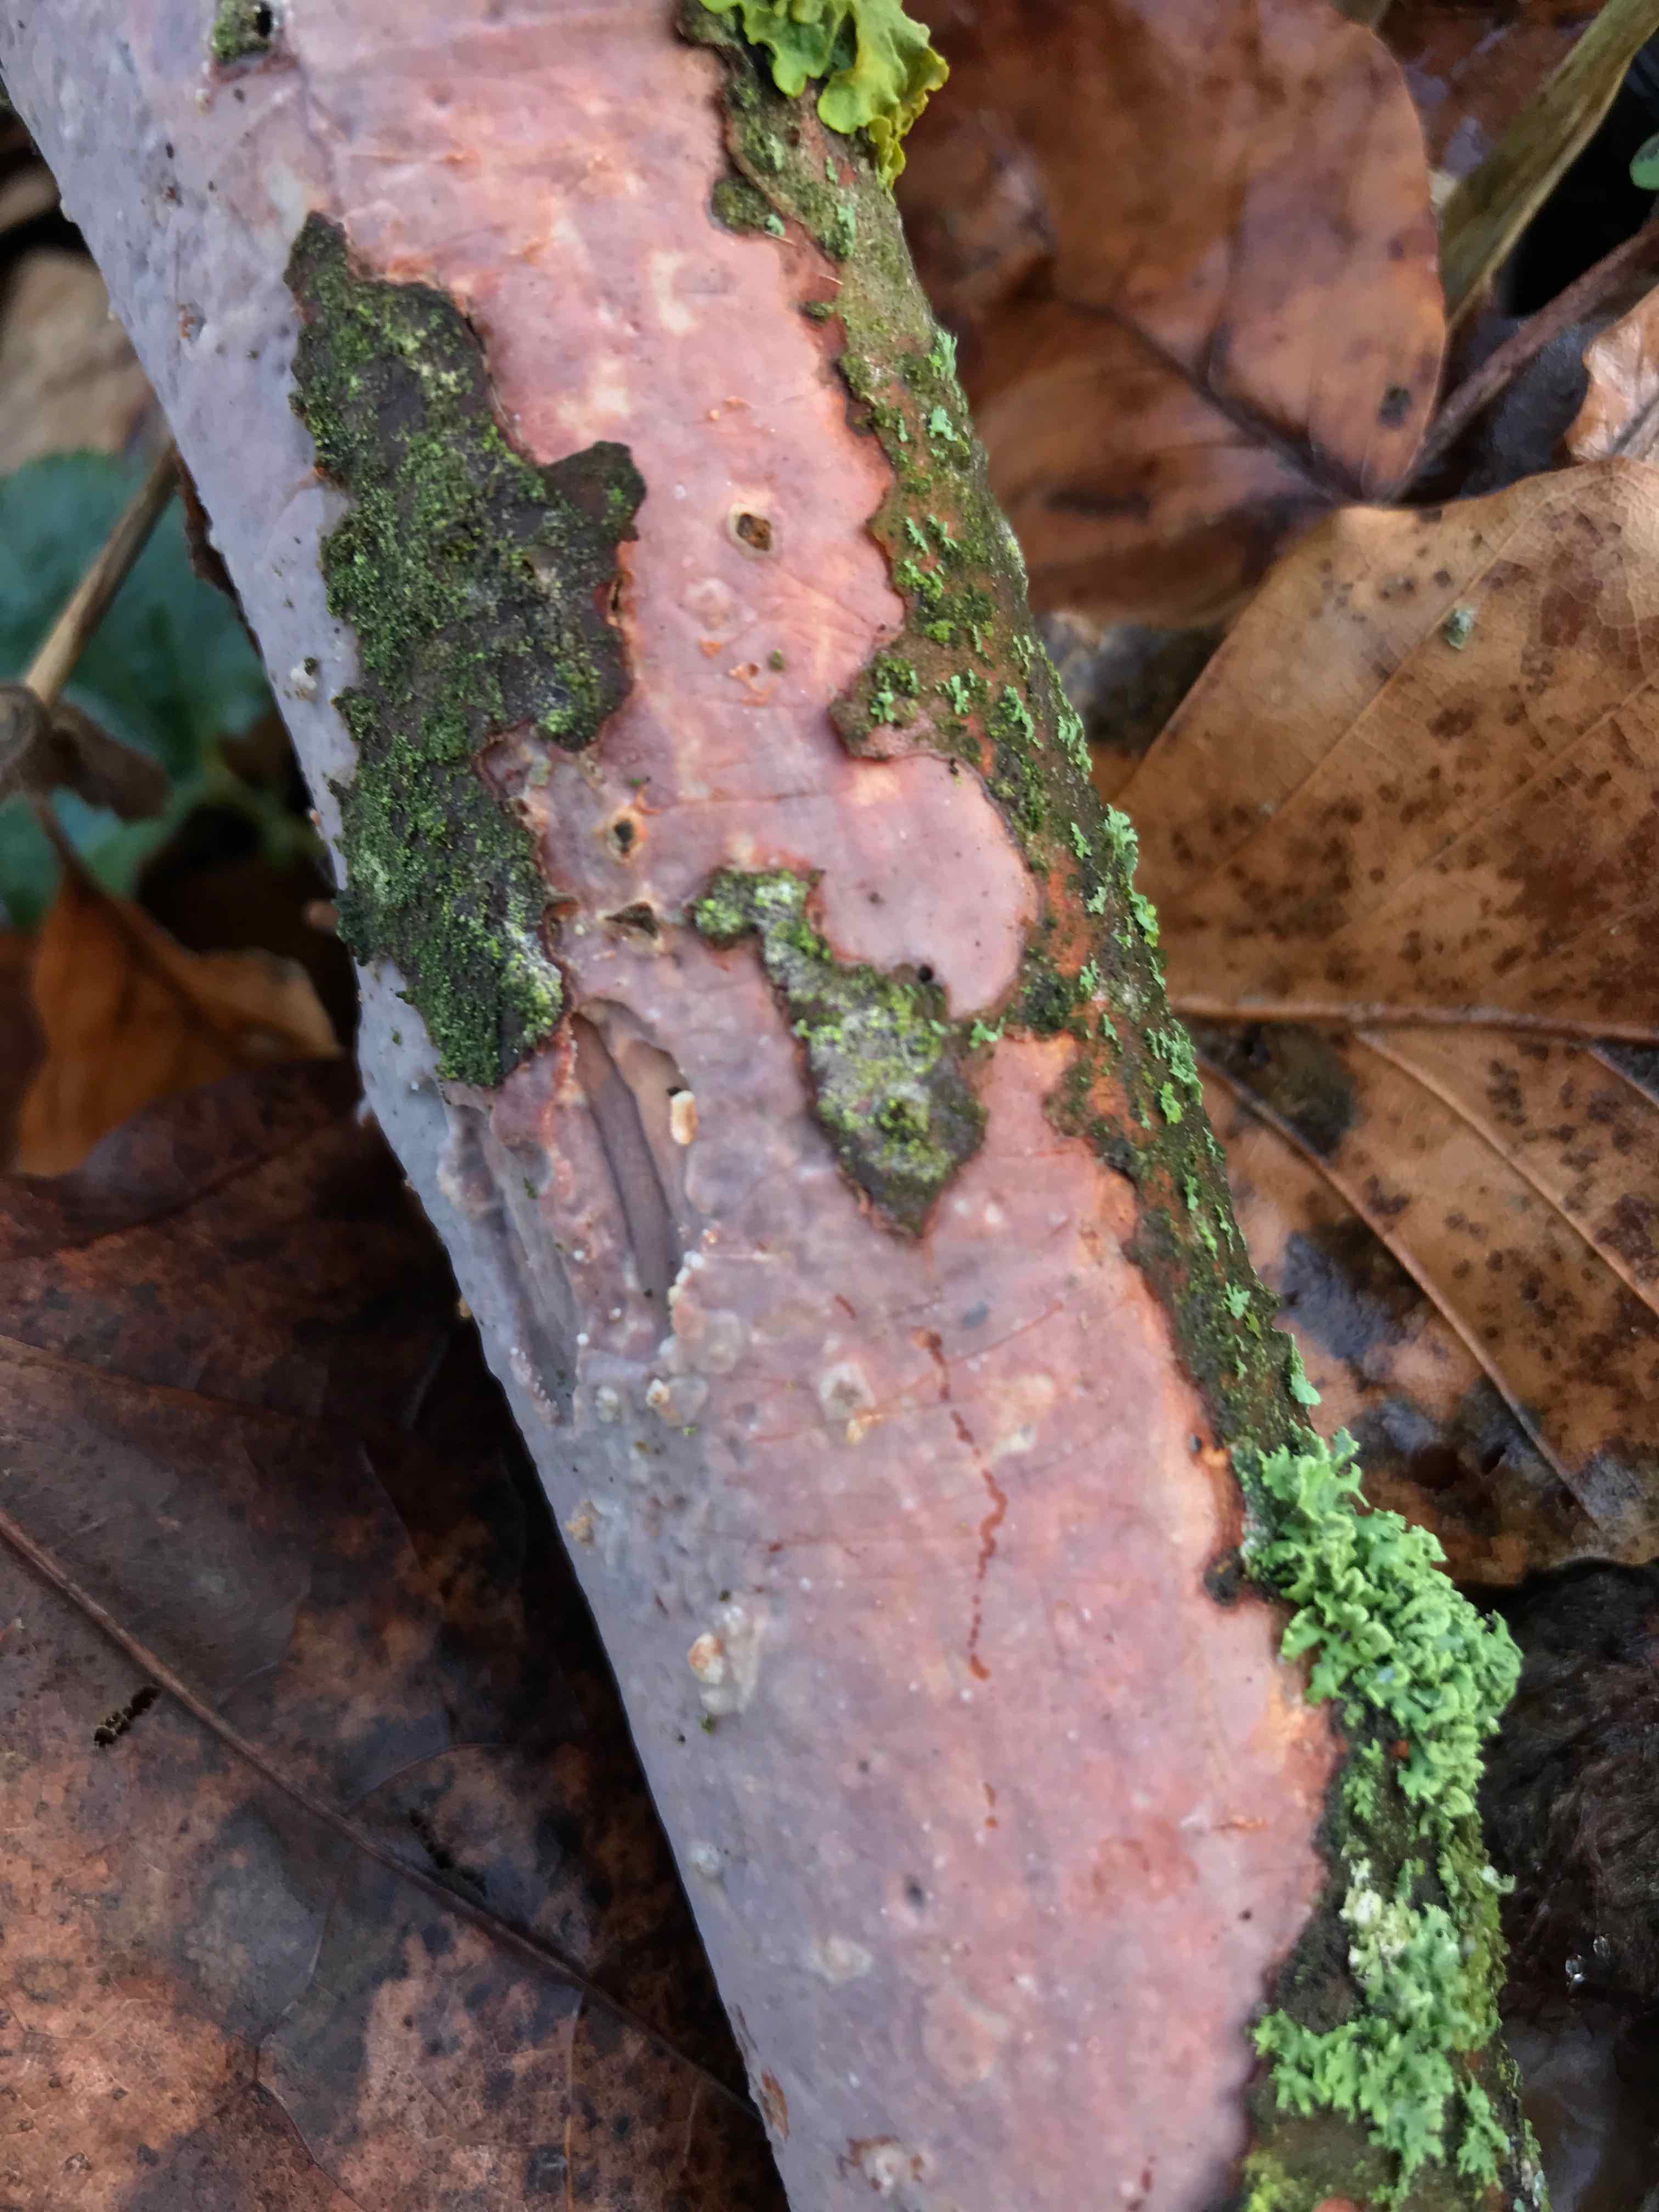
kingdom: Fungi
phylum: Basidiomycota
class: Agaricomycetes
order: Corticiales
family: Vuilleminiaceae
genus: Vuilleminia
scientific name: Vuilleminia comedens
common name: almindelig barksprænger
